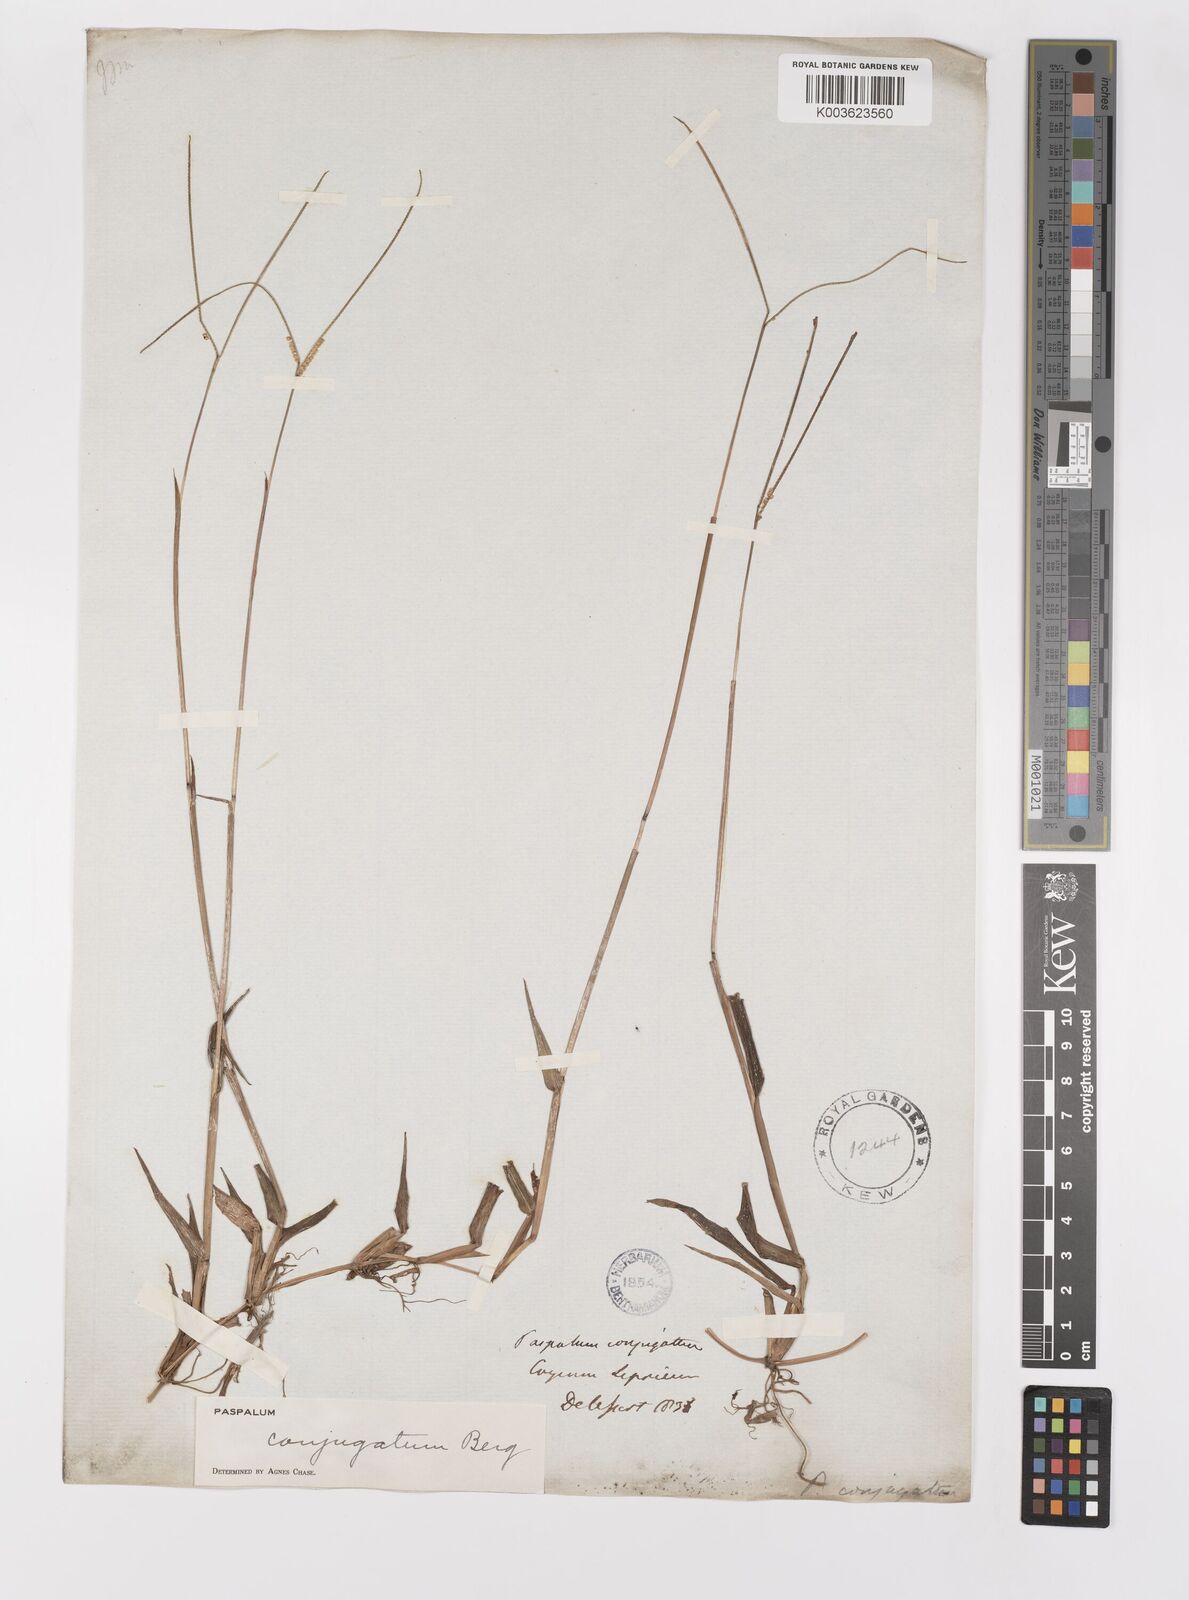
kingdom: Plantae
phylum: Tracheophyta
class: Liliopsida
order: Poales
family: Poaceae
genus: Paspalum
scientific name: Paspalum conjugatum
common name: Hilograss
